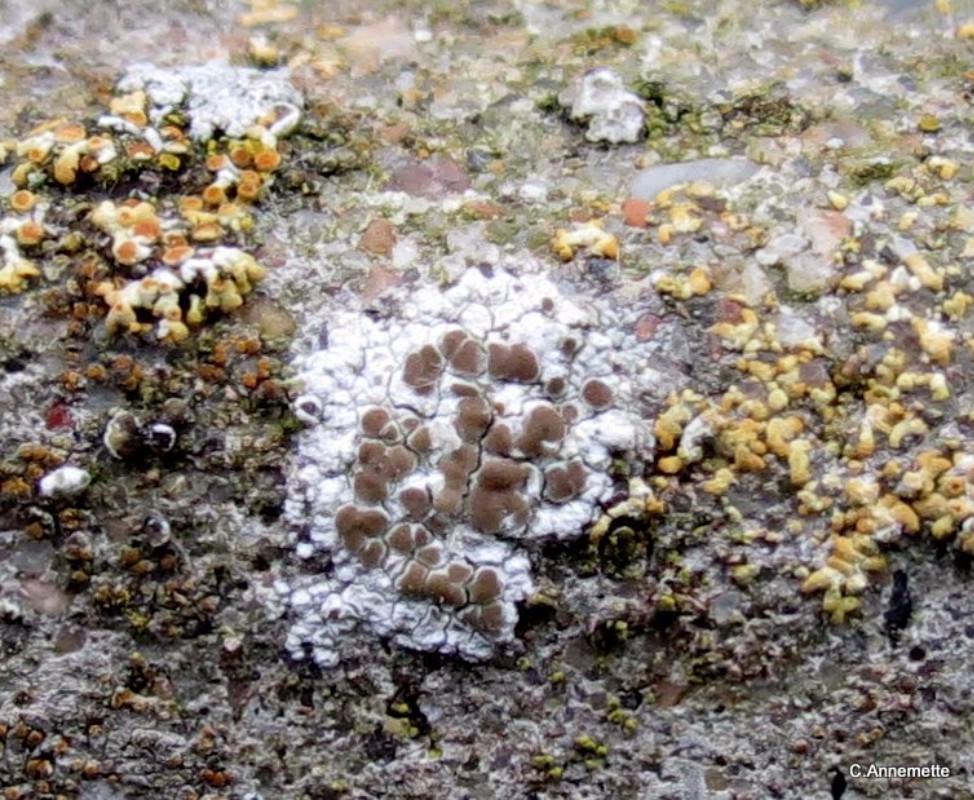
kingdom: Fungi
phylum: Ascomycota
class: Lecanoromycetes
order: Lecanorales
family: Lecanoraceae
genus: Polyozosia
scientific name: Polyozosia albescens
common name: cement-kantskivelav
